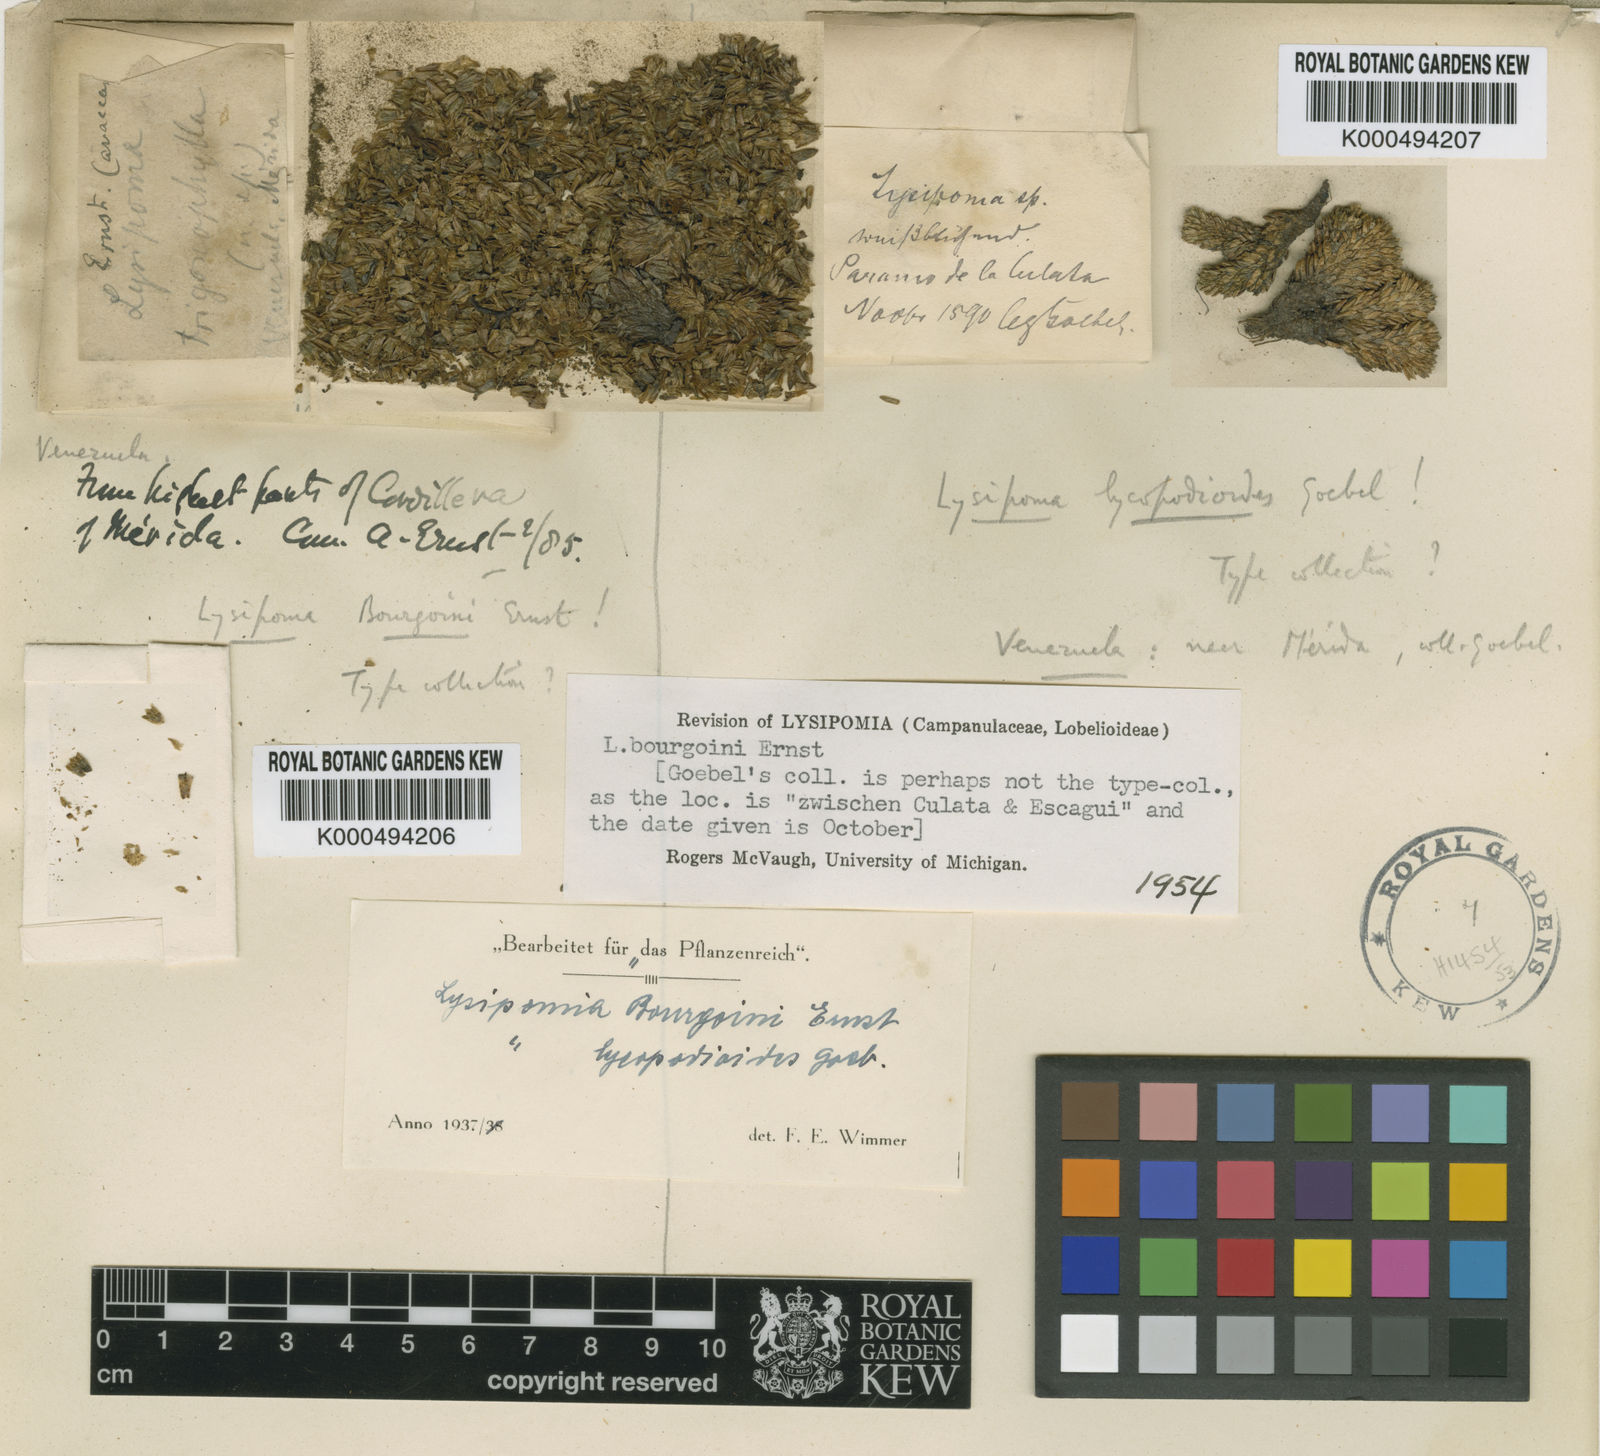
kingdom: Plantae
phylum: Tracheophyta
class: Magnoliopsida
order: Asterales
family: Campanulaceae
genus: Lysipomia
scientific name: Lysipomia bourgoinii
